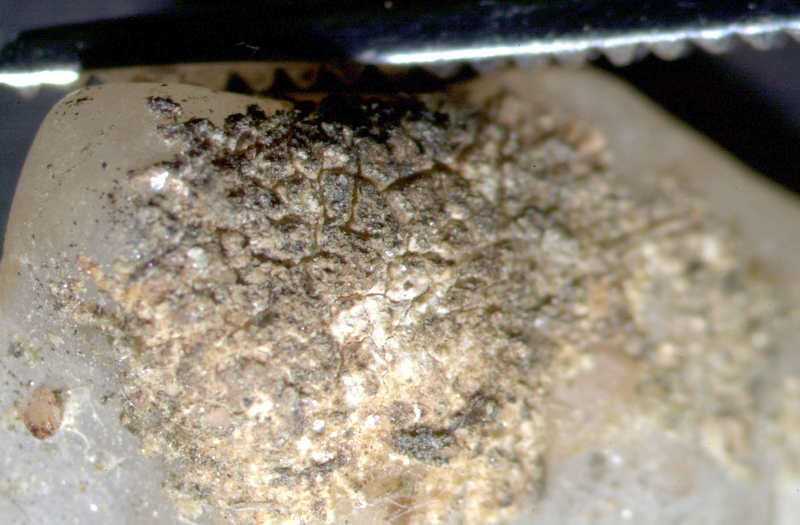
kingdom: Fungi
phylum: Ascomycota
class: Lecanoromycetes
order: Lecanorales
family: Ramalinaceae
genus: Ramalina
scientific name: Ramalina capensis
